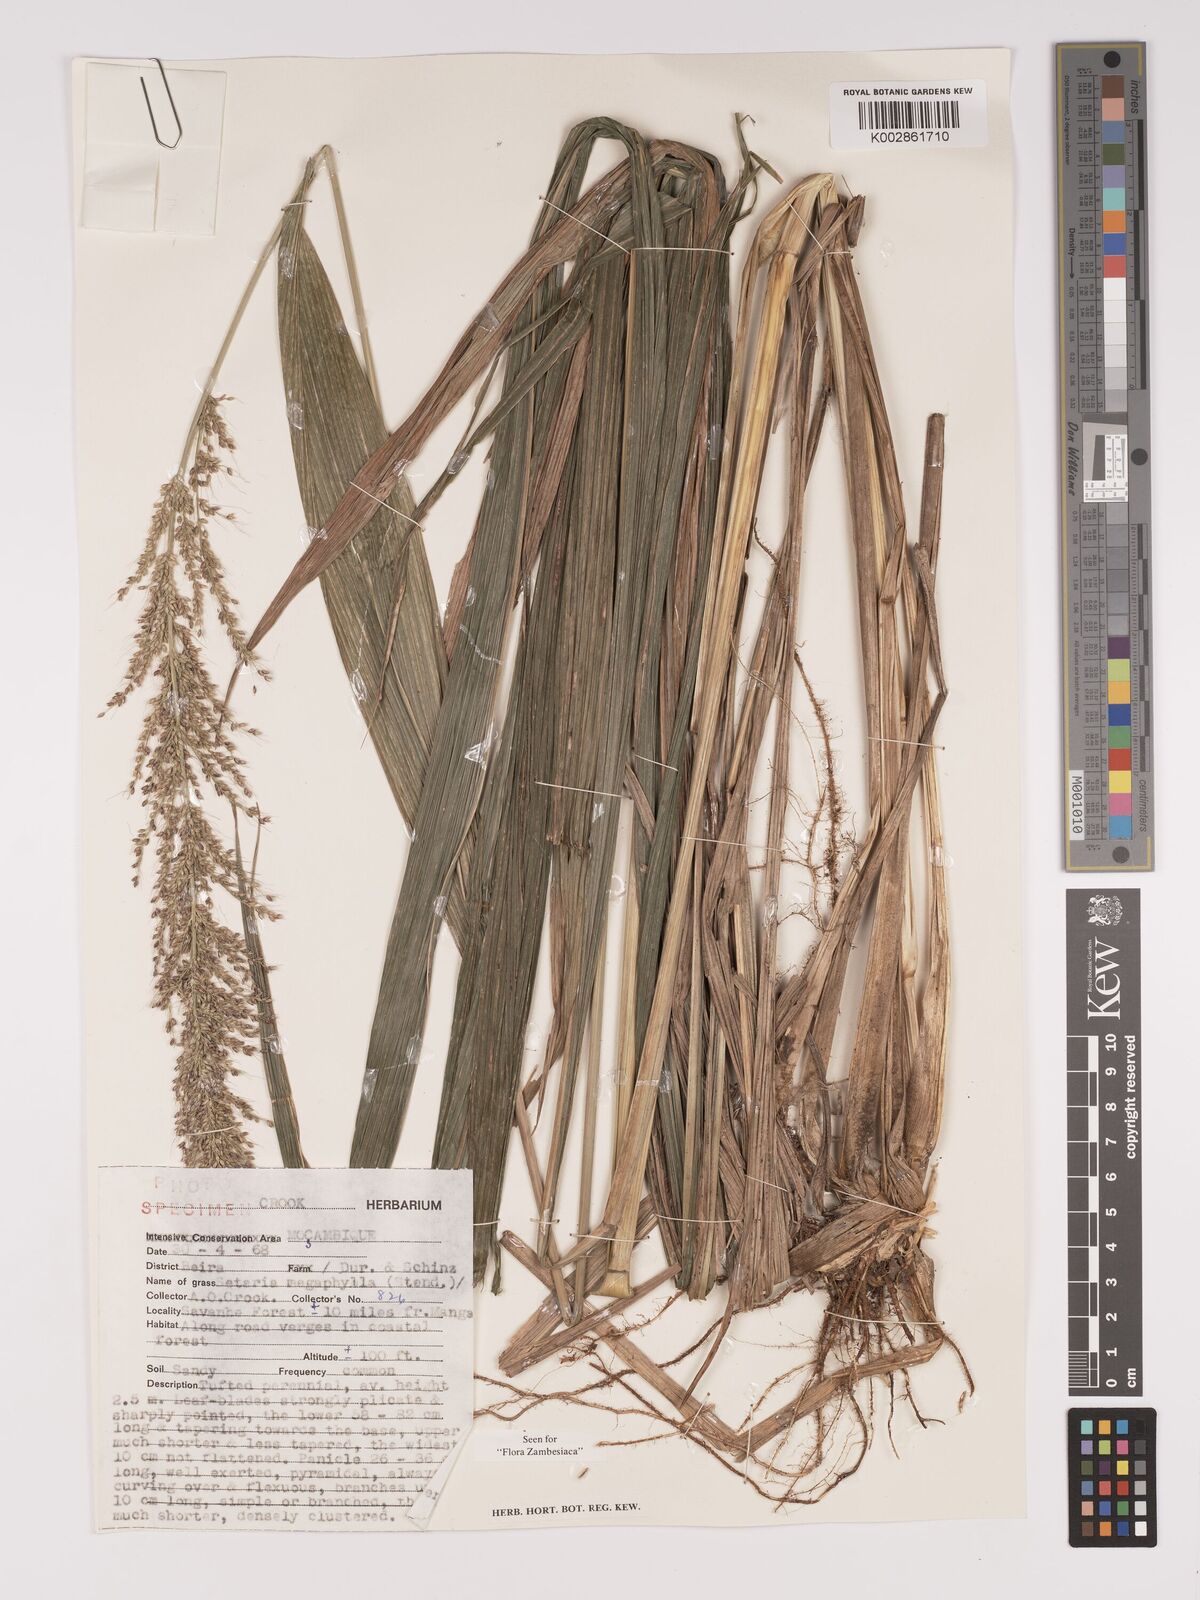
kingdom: Plantae
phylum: Tracheophyta
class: Liliopsida
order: Poales
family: Poaceae
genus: Setaria
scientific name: Setaria megaphylla
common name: Bigleaf bristlegrass
